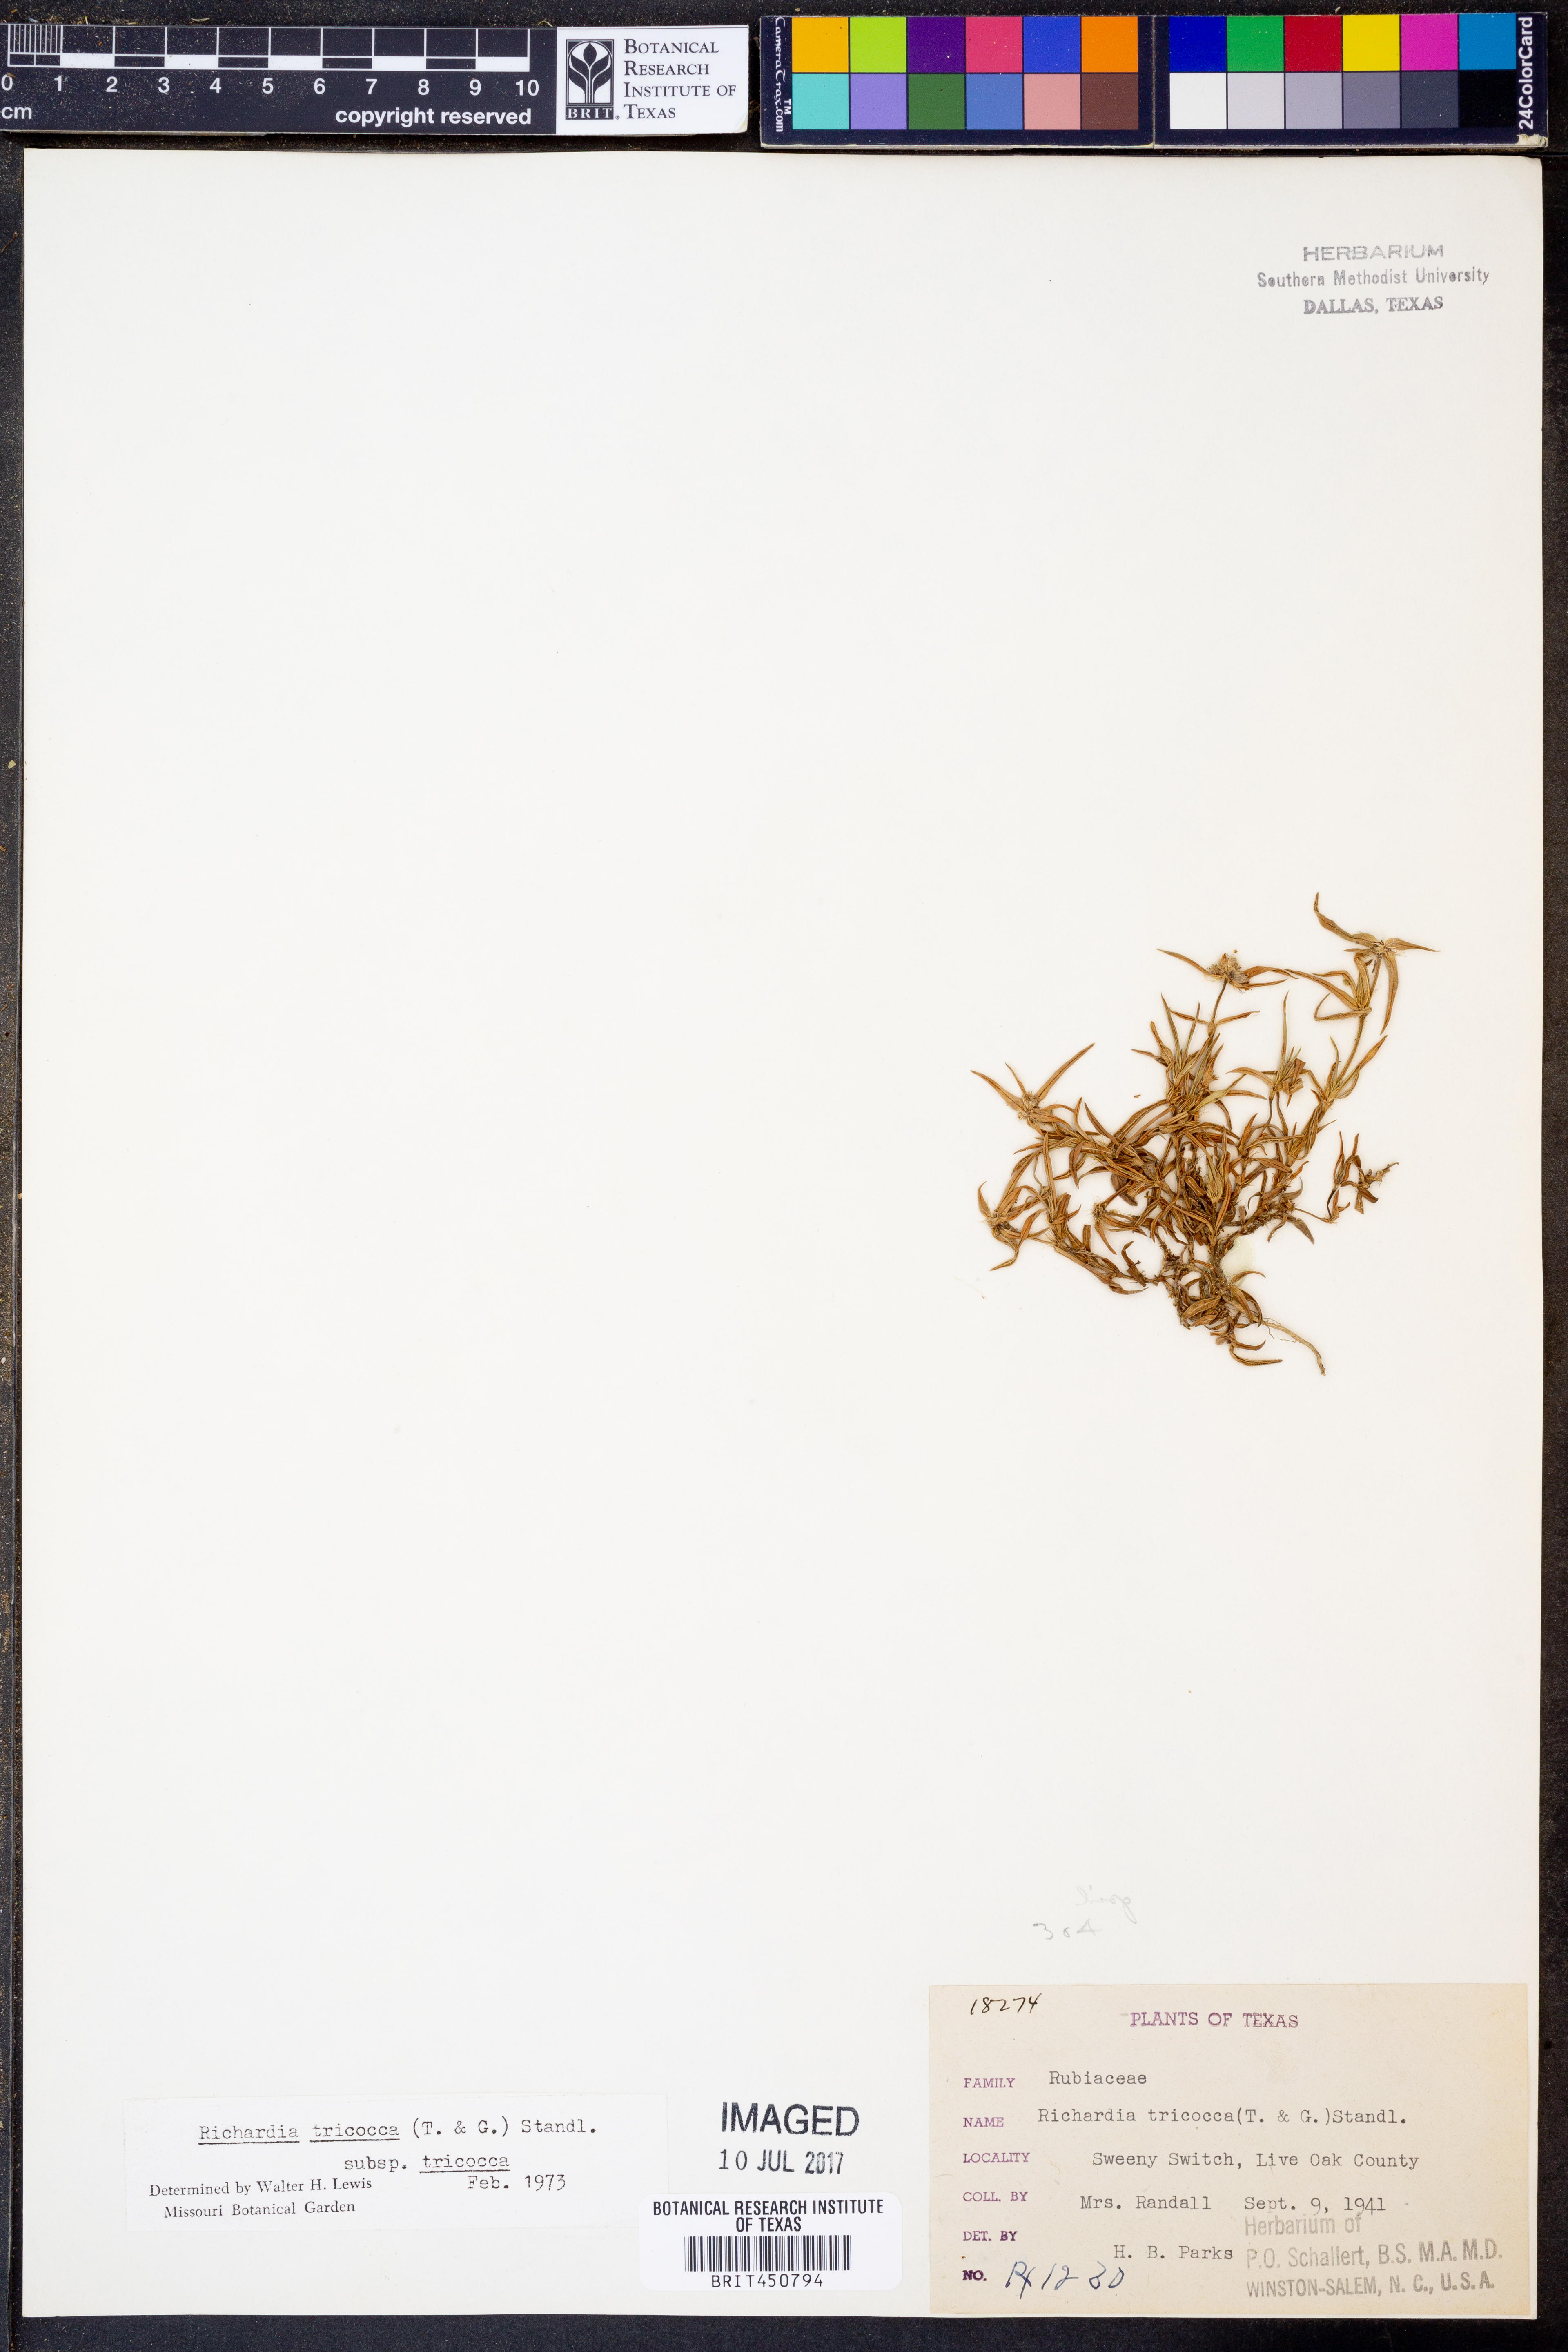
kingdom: Plantae
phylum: Tracheophyta
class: Magnoliopsida
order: Gentianales
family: Rubiaceae
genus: Richardia
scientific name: Richardia tricocca
